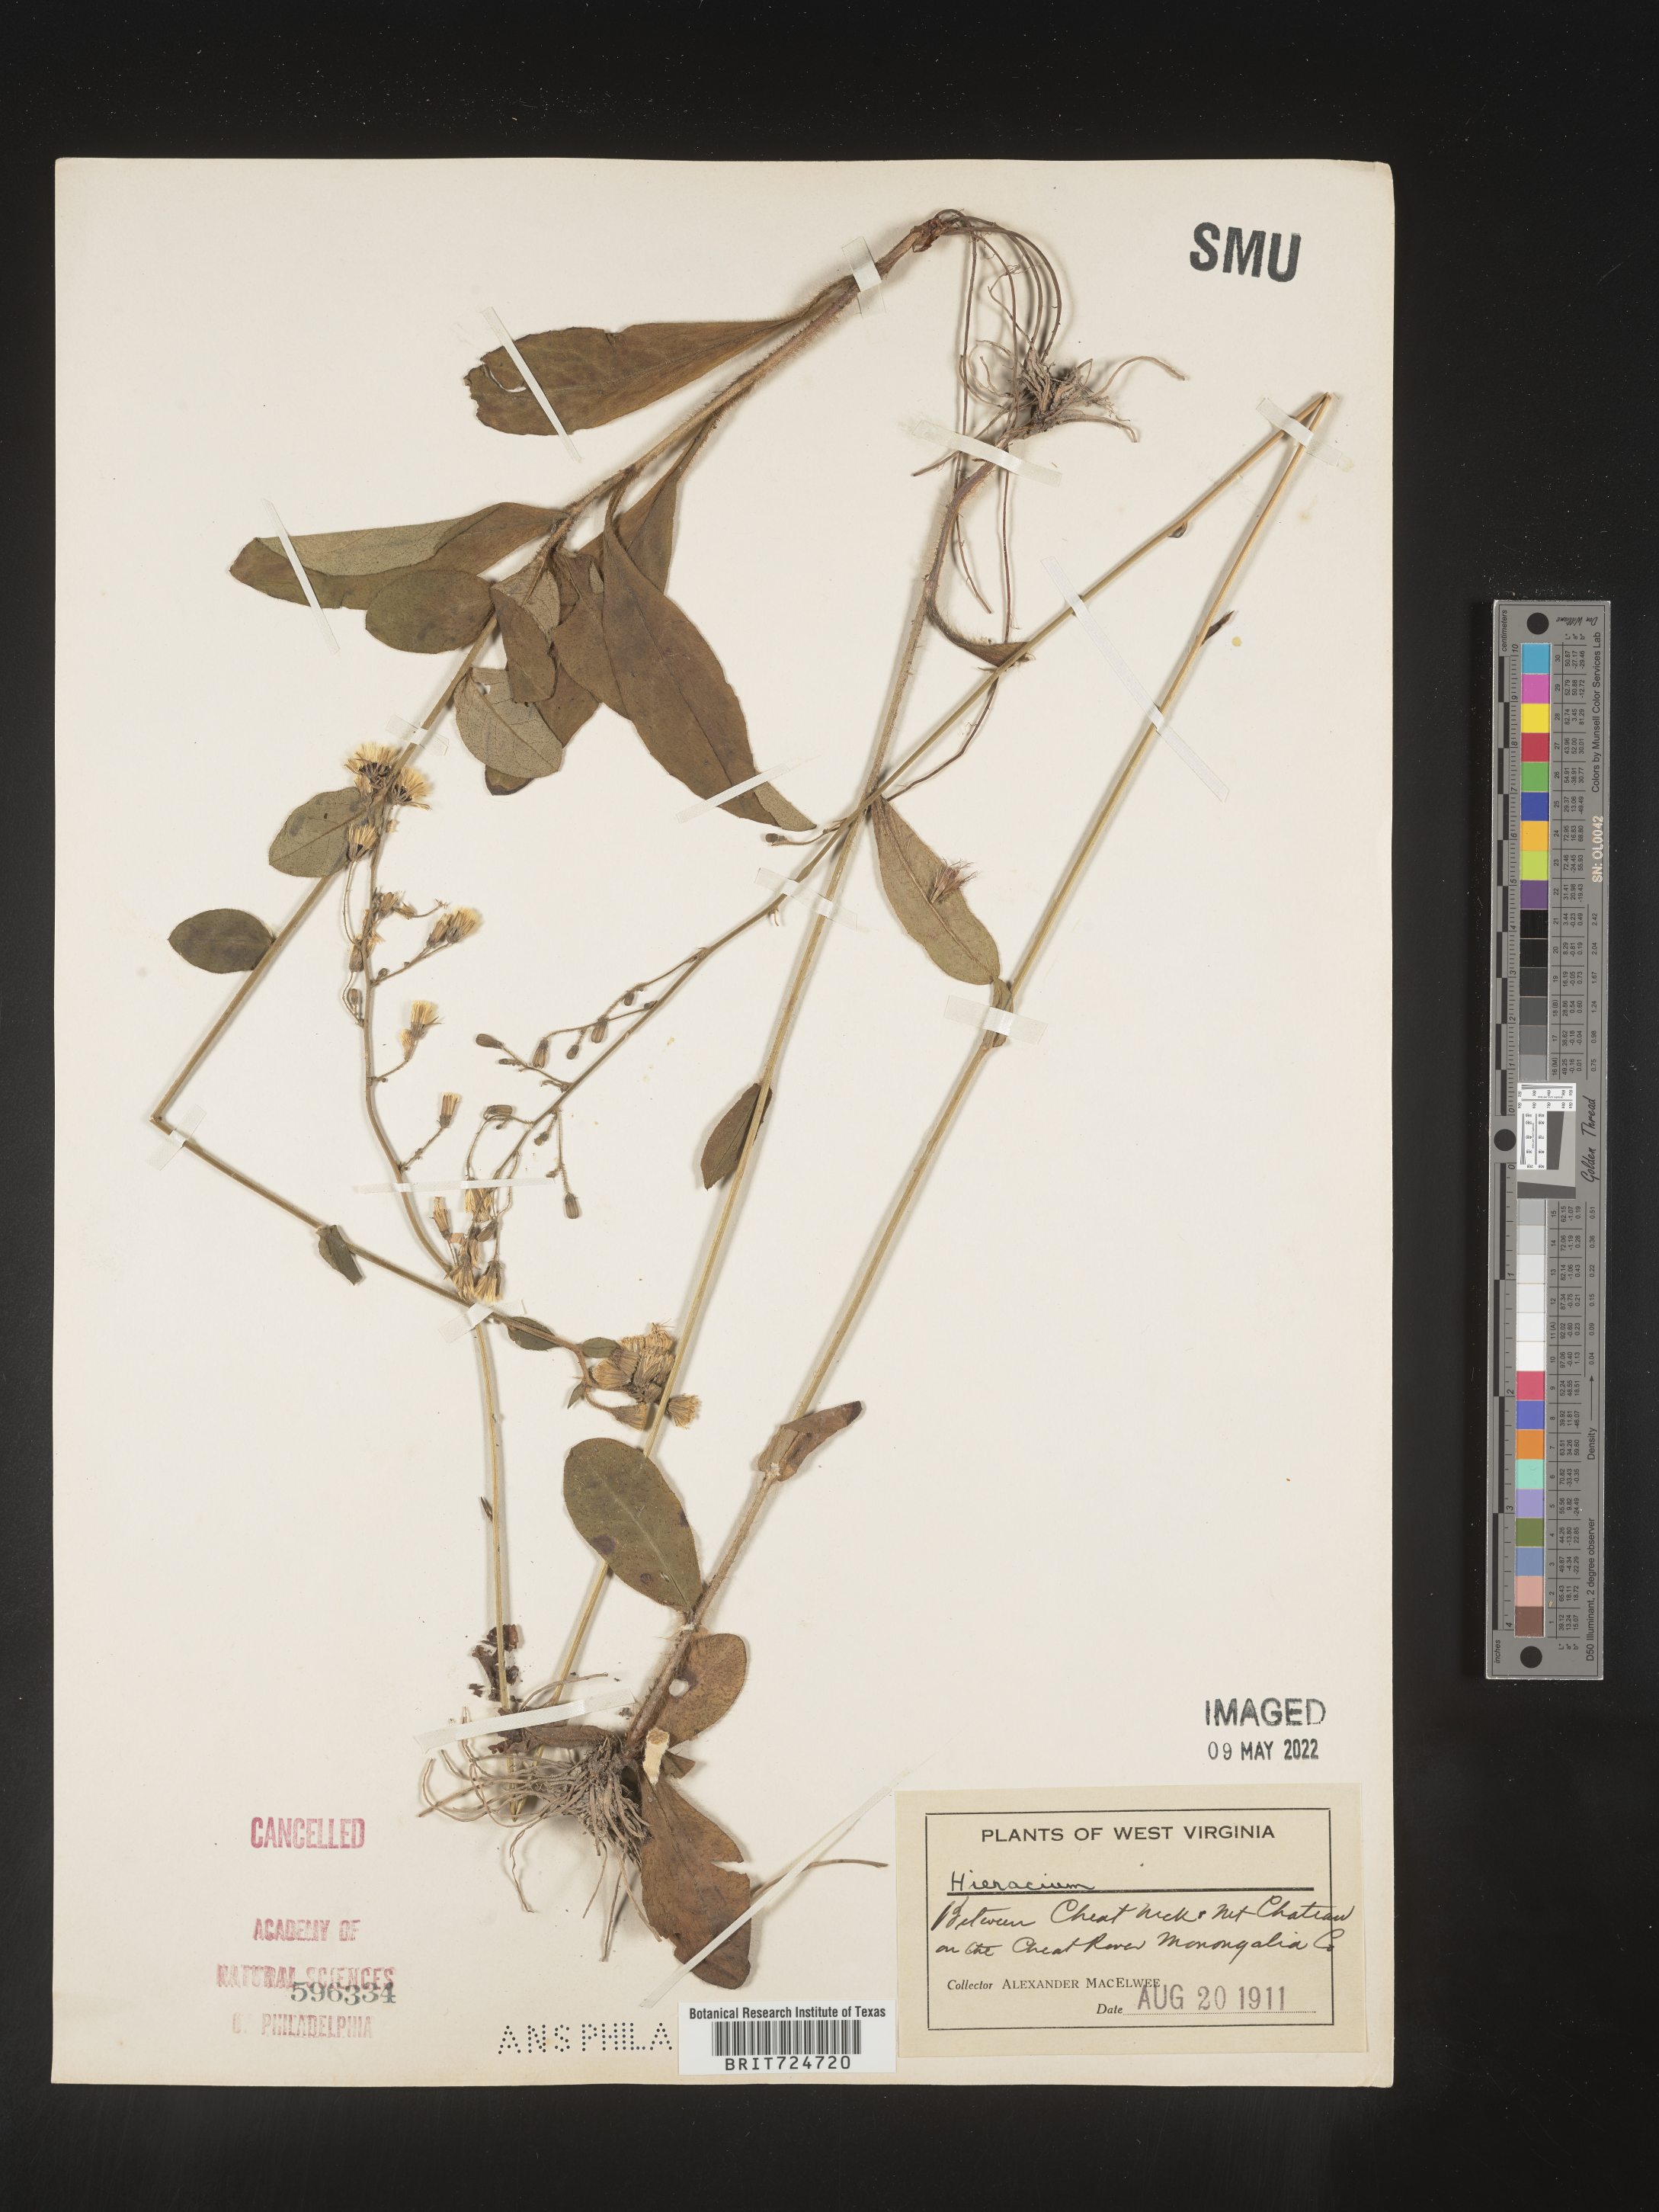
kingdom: Plantae
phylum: Tracheophyta
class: Magnoliopsida
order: Asterales
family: Asteraceae
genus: Hieracium
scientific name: Hieracium scabrum
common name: Rough hawkweed
